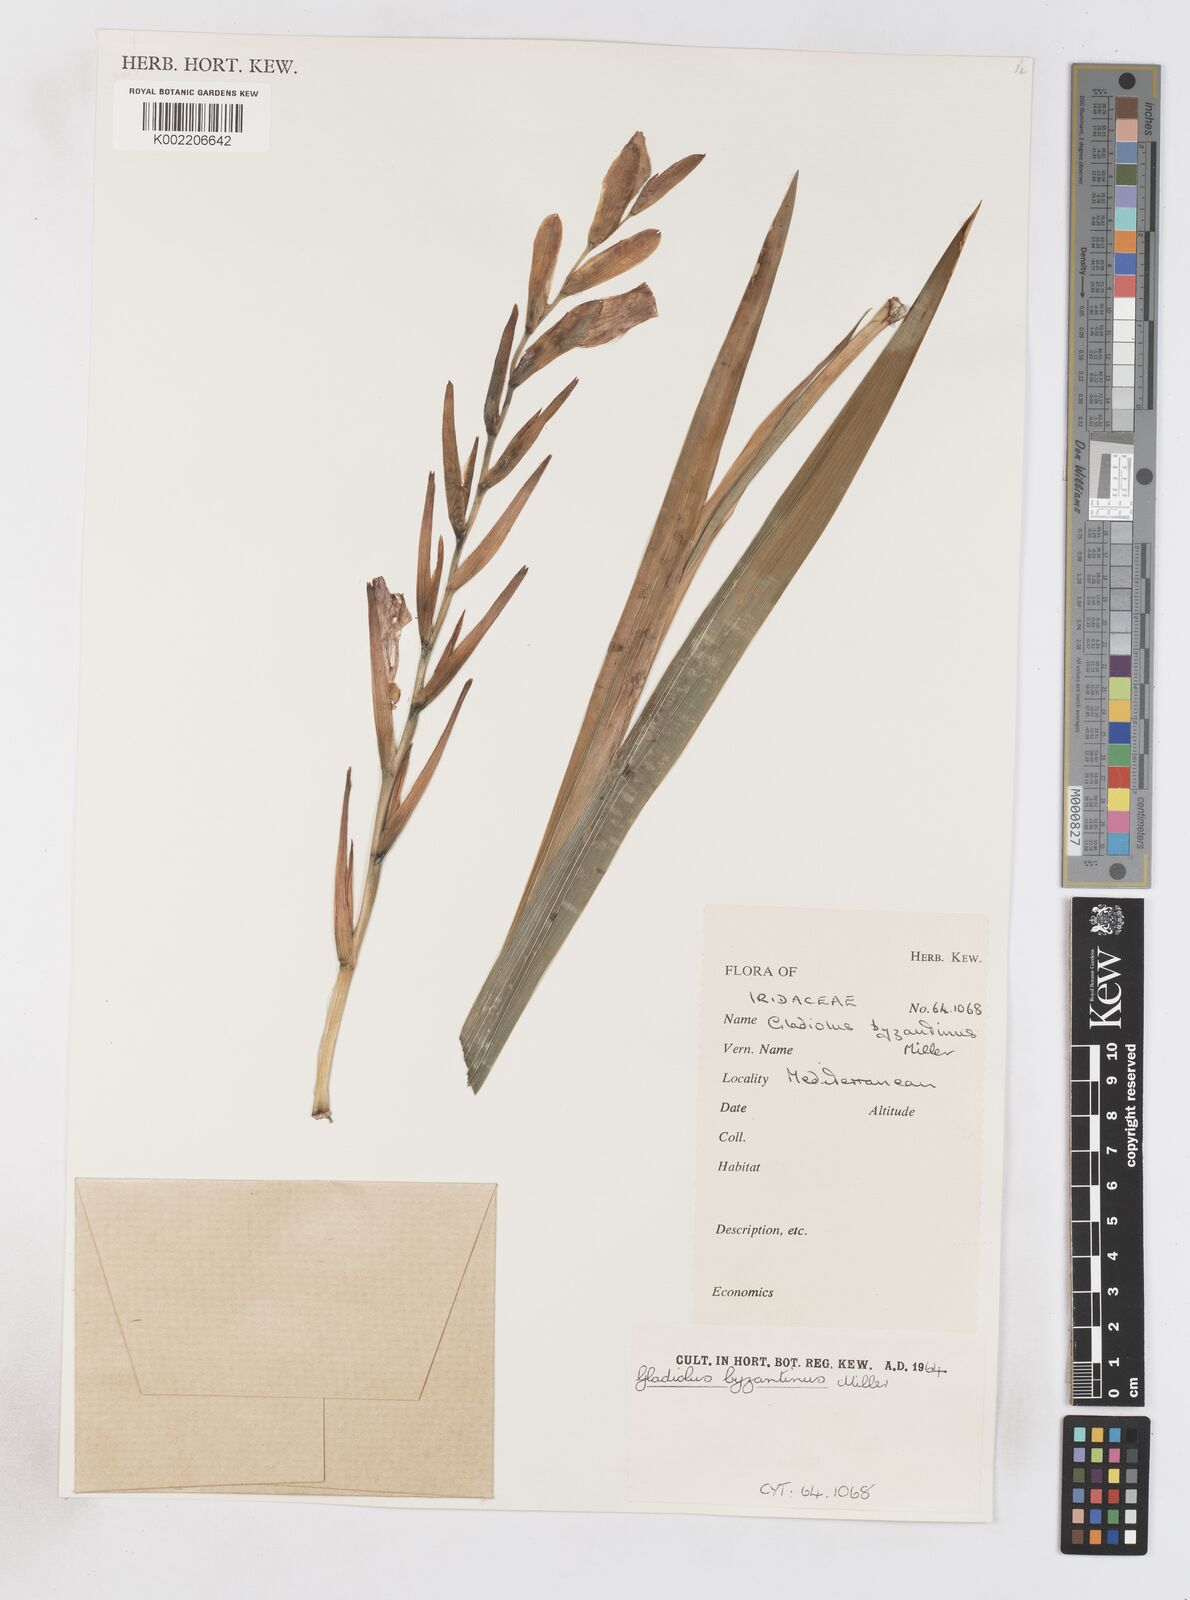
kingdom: Plantae
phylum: Tracheophyta
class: Liliopsida
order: Asparagales
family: Iridaceae
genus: Gladiolus
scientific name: Gladiolus byzantinus
